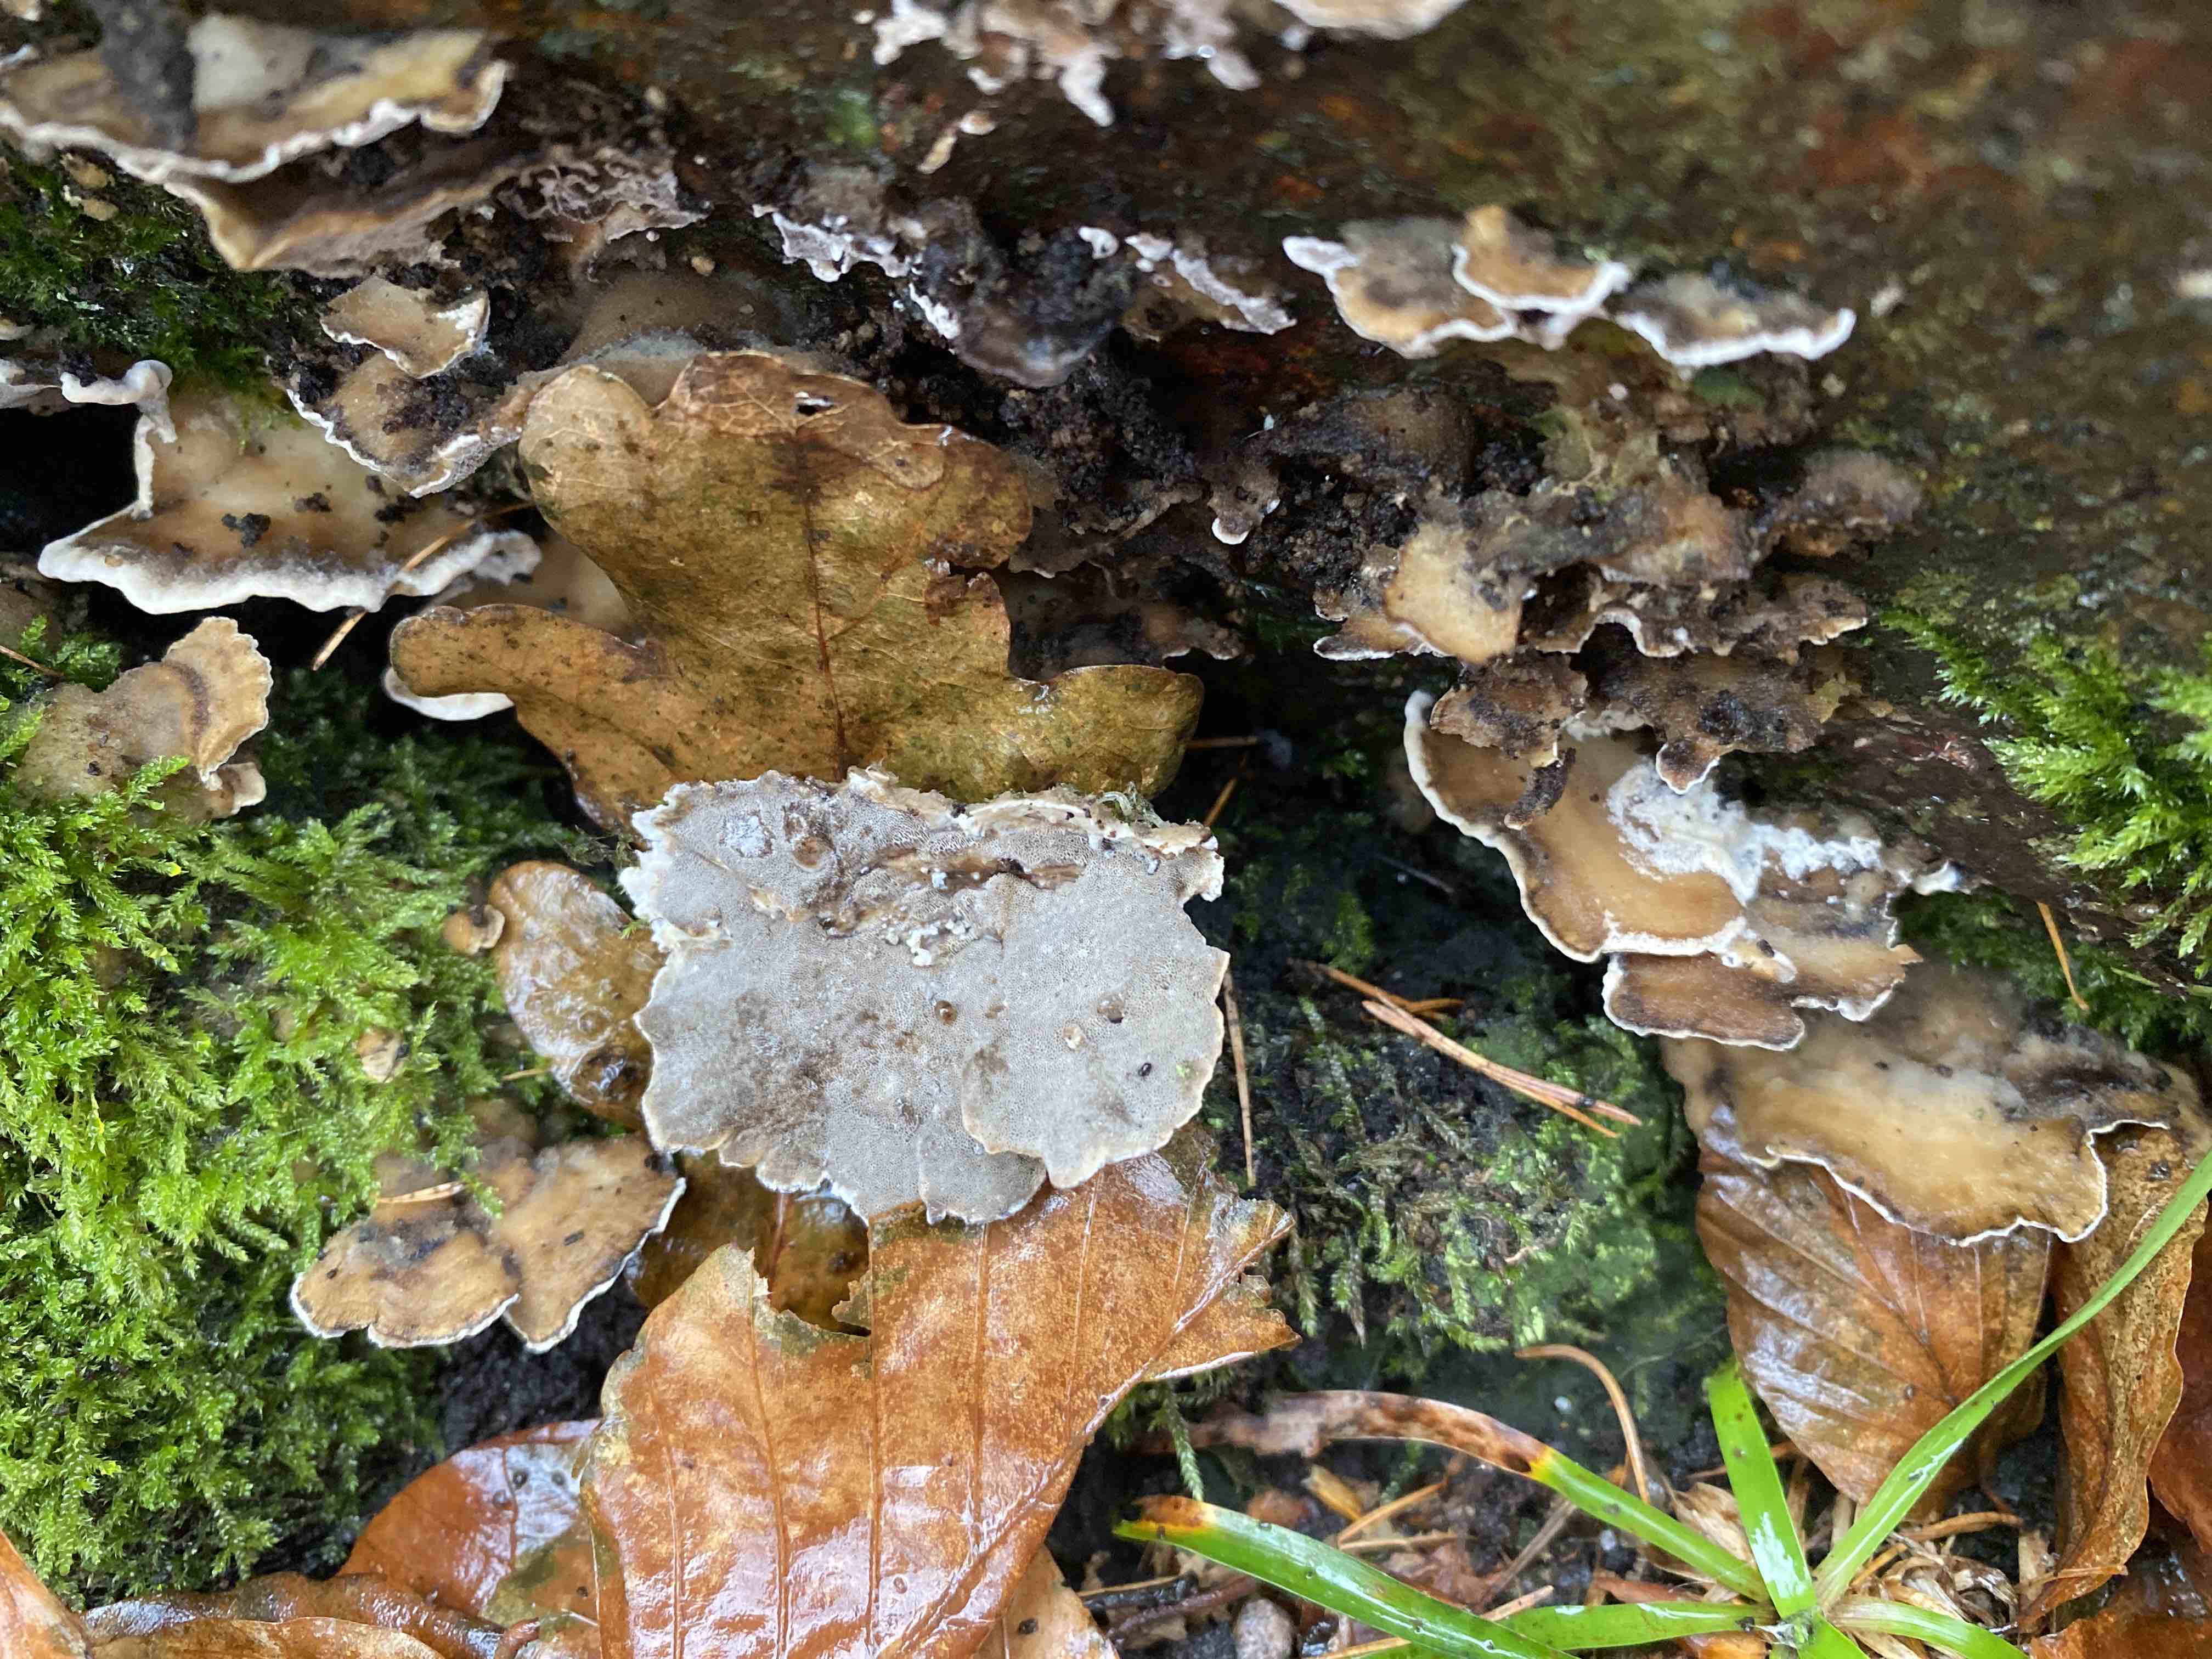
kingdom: Fungi
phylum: Basidiomycota
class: Agaricomycetes
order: Polyporales
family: Phanerochaetaceae
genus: Bjerkandera
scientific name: Bjerkandera adusta
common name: sveden sodporesvamp
